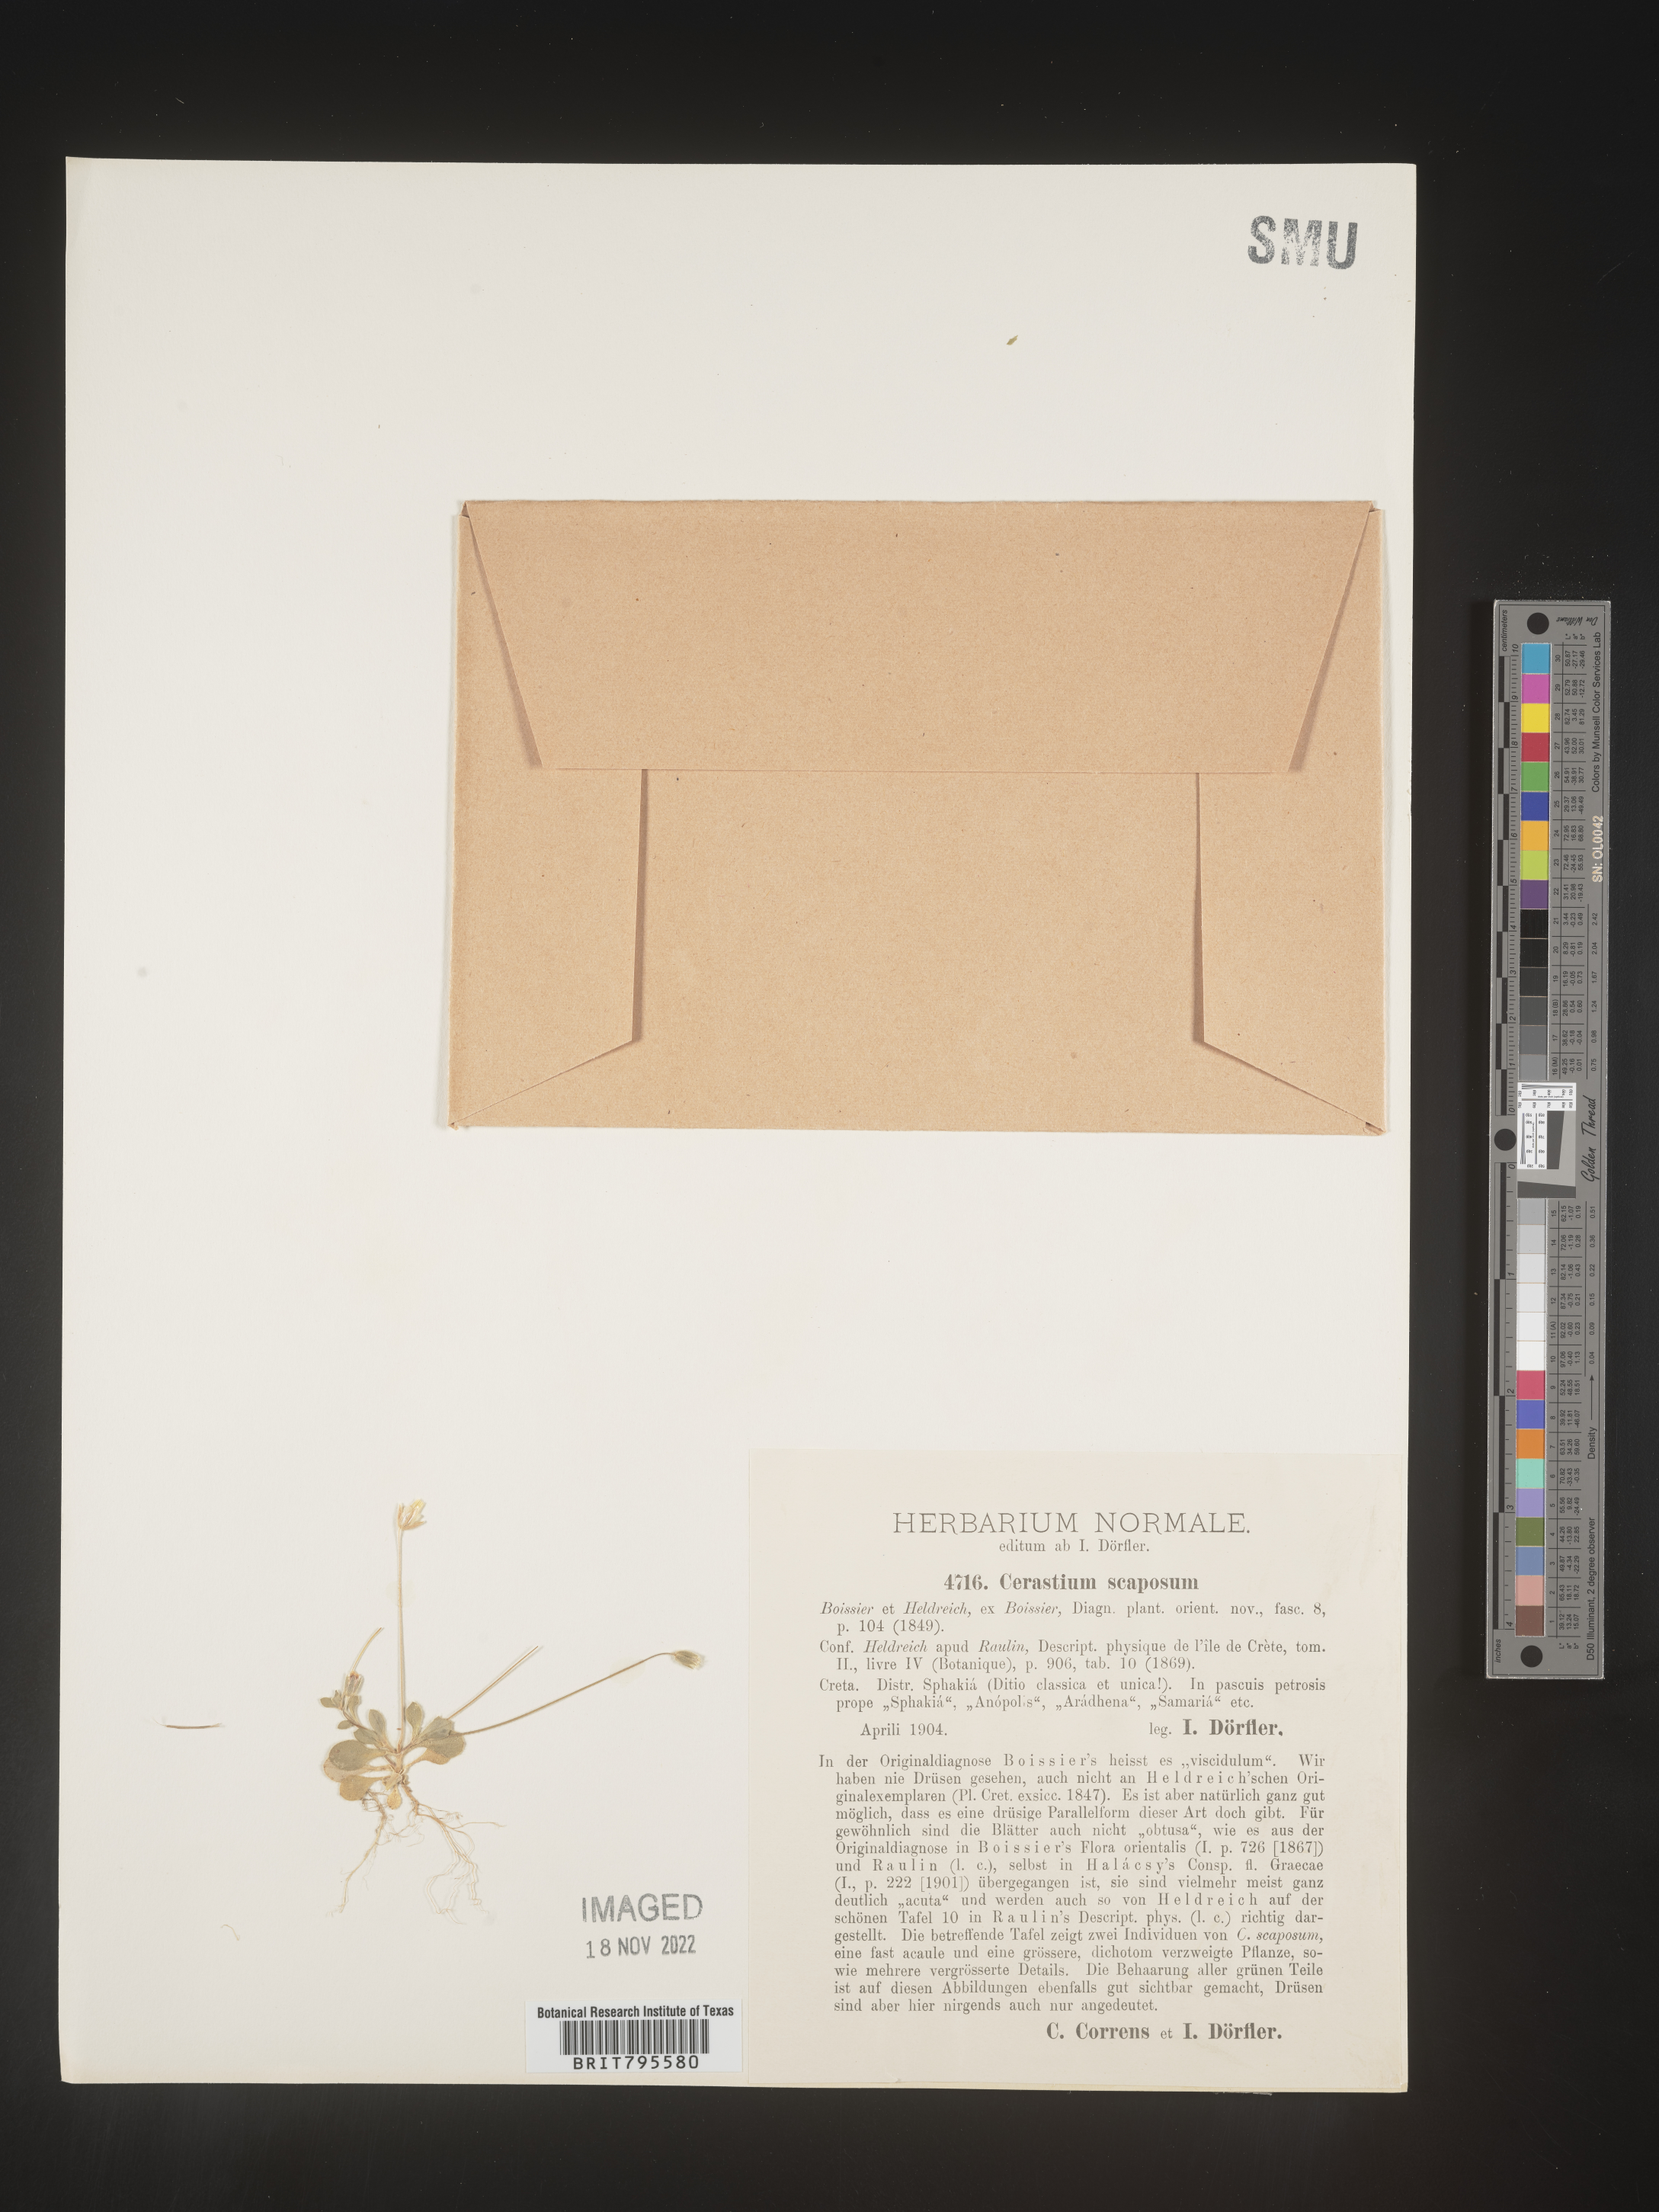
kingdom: Plantae
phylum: Tracheophyta
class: Magnoliopsida
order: Caryophyllales
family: Caryophyllaceae
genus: Cerastium
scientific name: Cerastium
